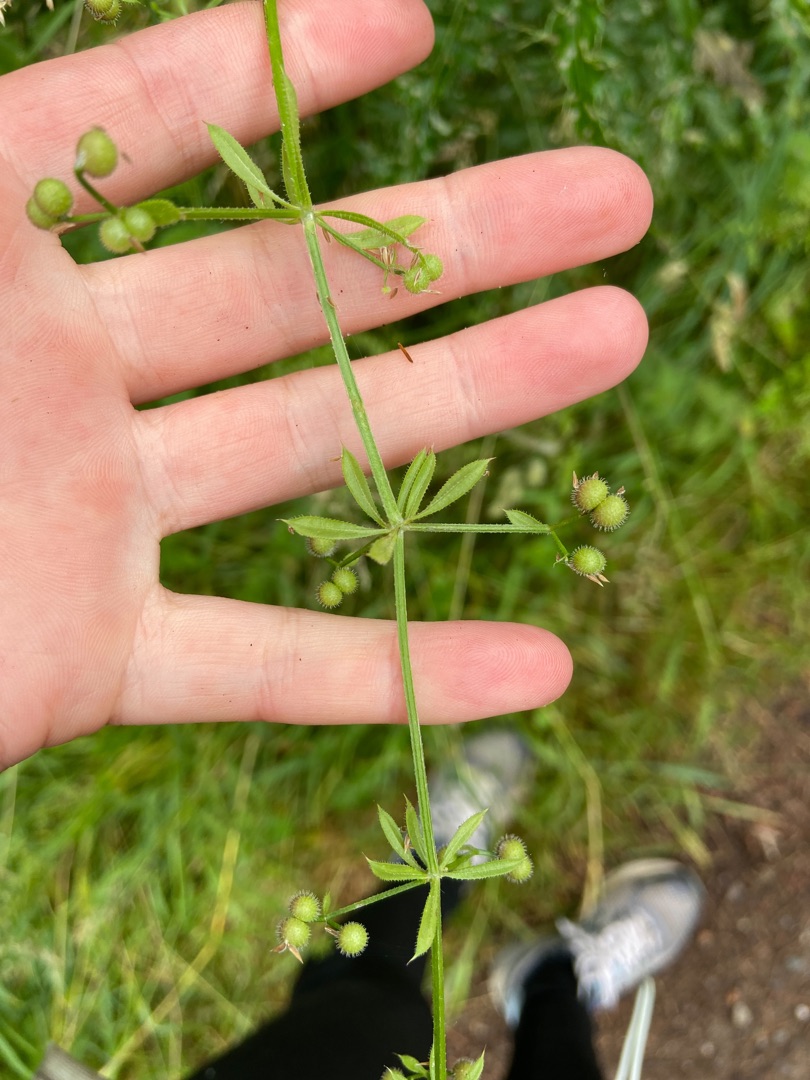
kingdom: Plantae
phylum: Tracheophyta
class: Magnoliopsida
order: Gentianales
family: Rubiaceae
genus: Galium
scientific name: Galium aparine
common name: Burre-snerre
